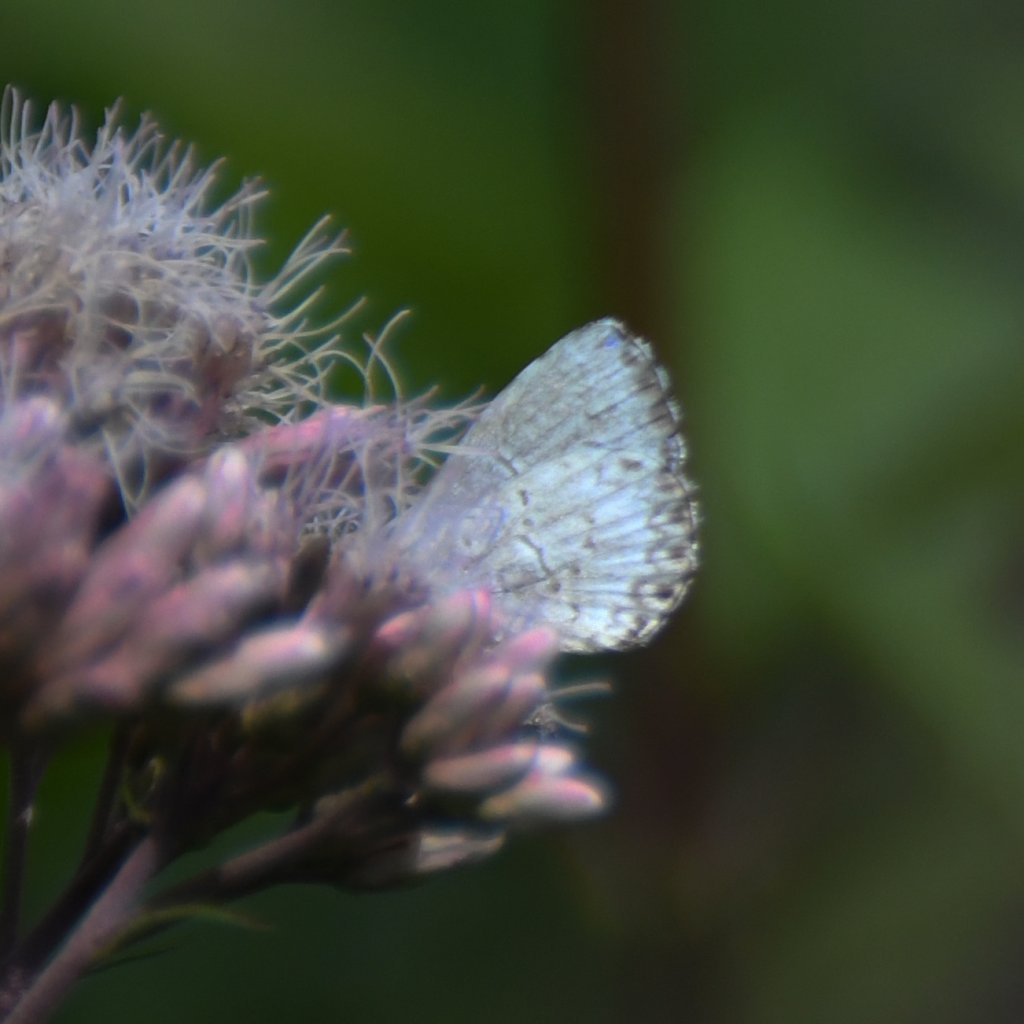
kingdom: Animalia
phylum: Arthropoda
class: Insecta
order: Lepidoptera
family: Lycaenidae
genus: Celastrina
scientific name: Celastrina lucia
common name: Northern Spring Azure
